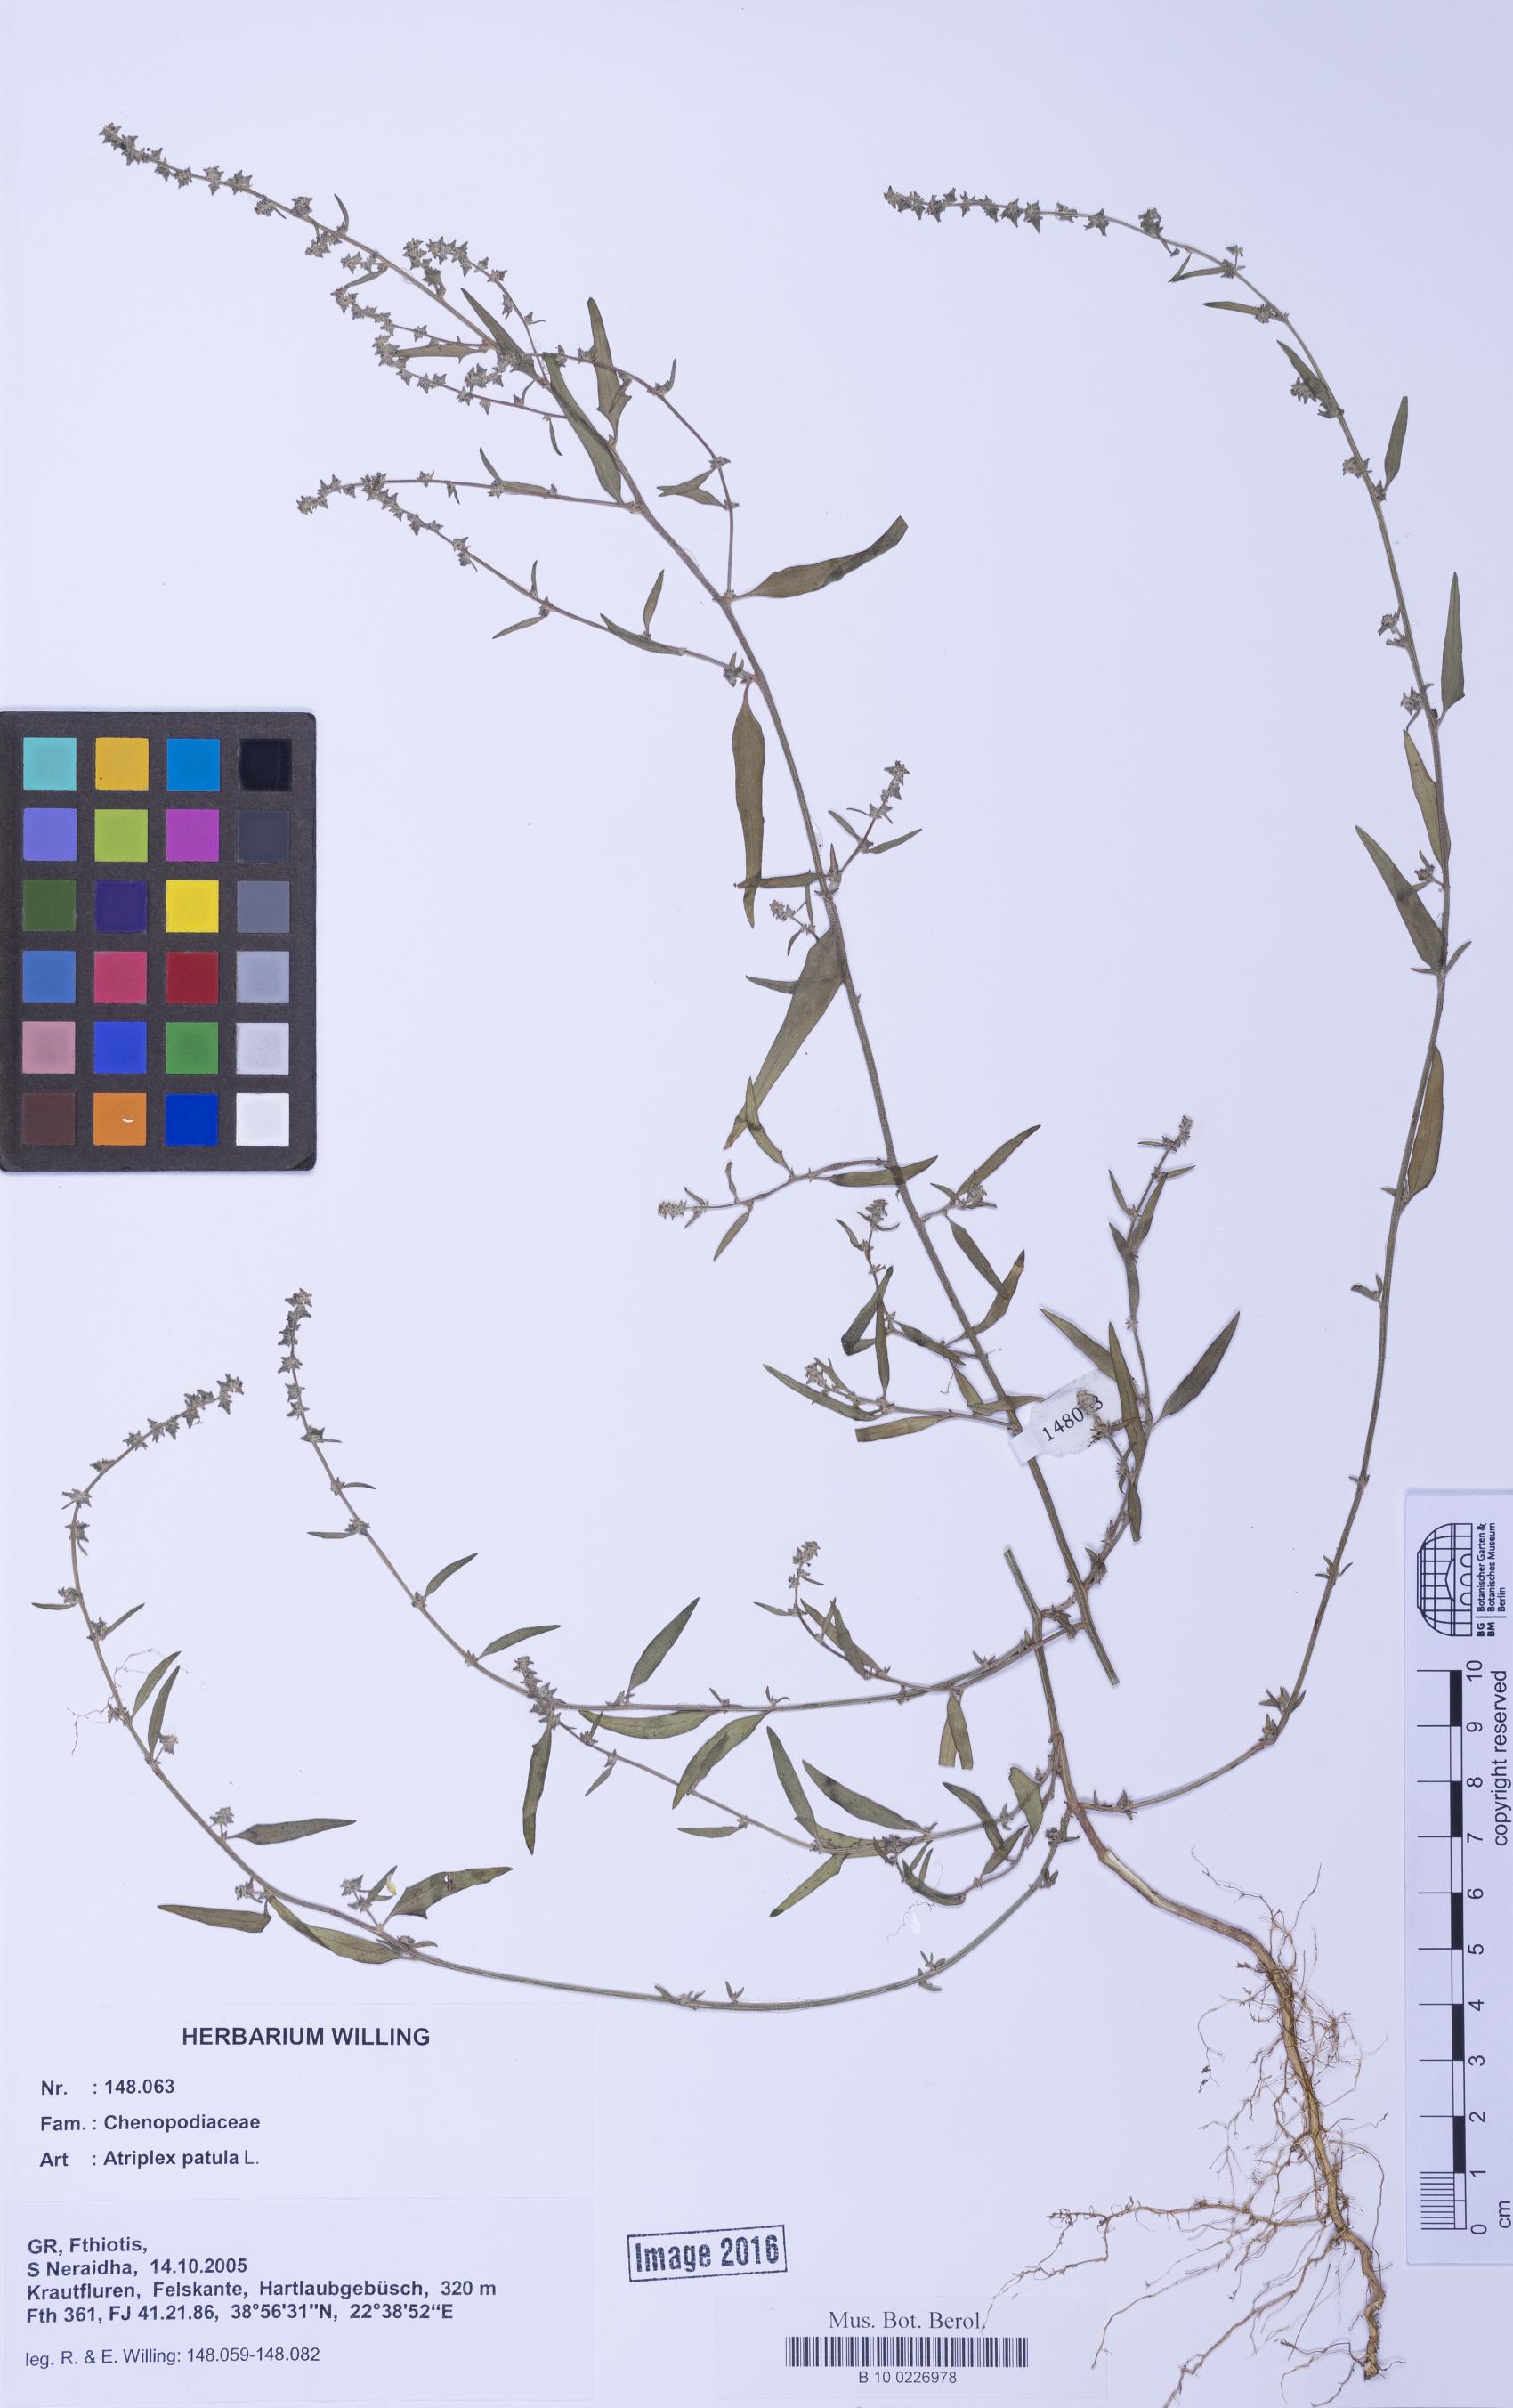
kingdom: Plantae
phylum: Tracheophyta
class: Magnoliopsida
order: Caryophyllales
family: Amaranthaceae
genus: Atriplex
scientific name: Atriplex patula
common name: Common orache
